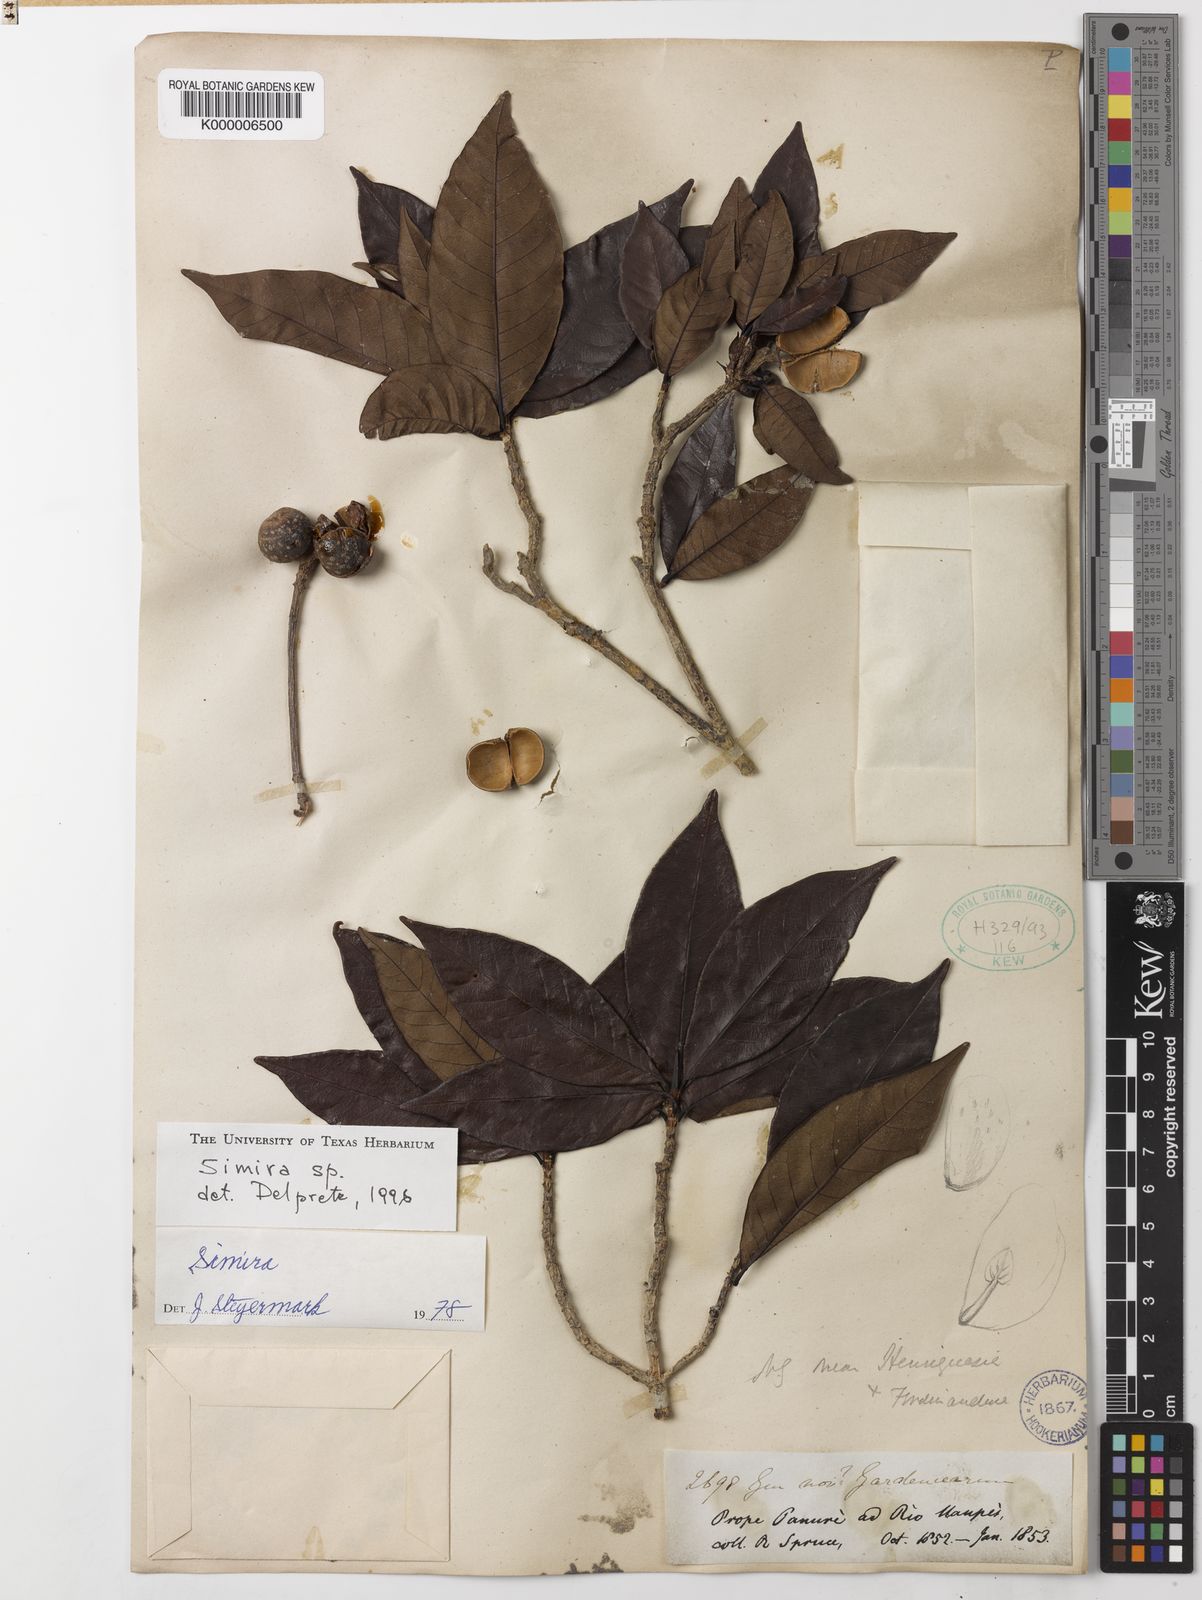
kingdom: Plantae
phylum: Tracheophyta
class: Magnoliopsida
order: Gentianales
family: Rubiaceae
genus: Simira
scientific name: Simira
